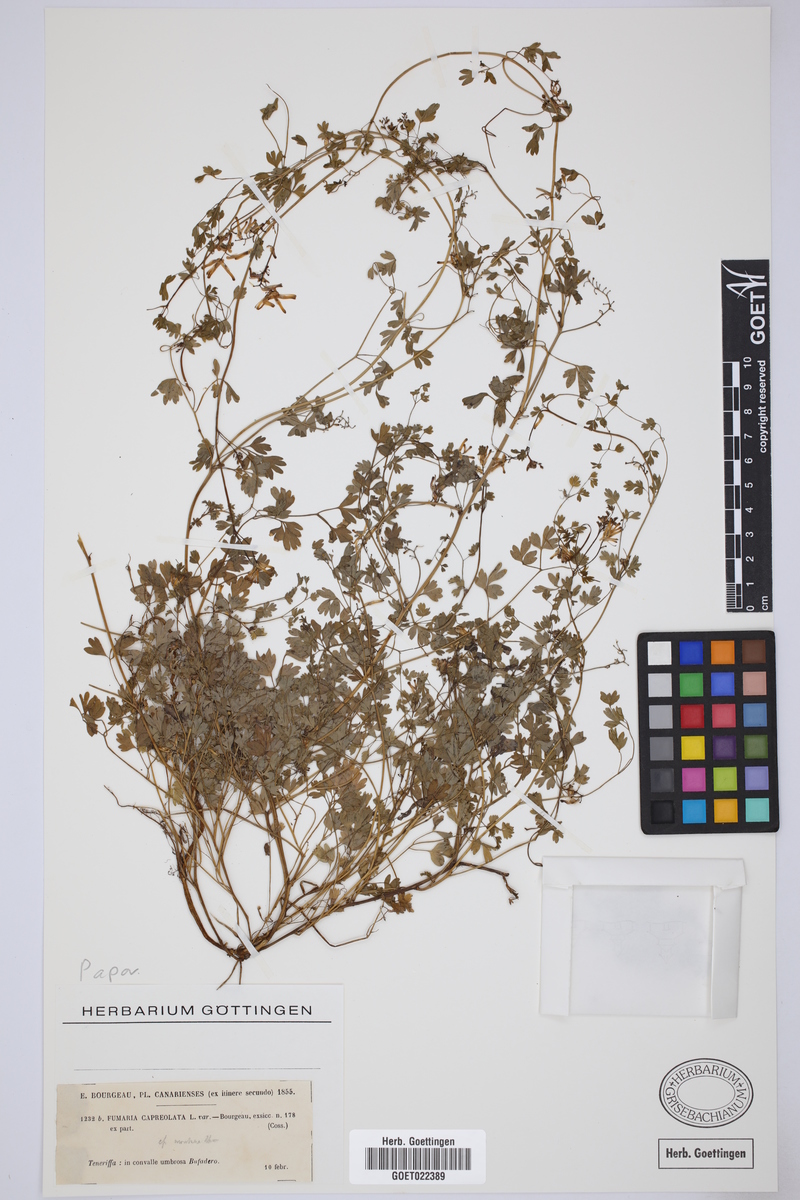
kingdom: Plantae
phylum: Tracheophyta
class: Magnoliopsida
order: Ranunculales
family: Papaveraceae
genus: Fumaria
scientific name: Fumaria capreolata
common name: White ramping-fumitory
